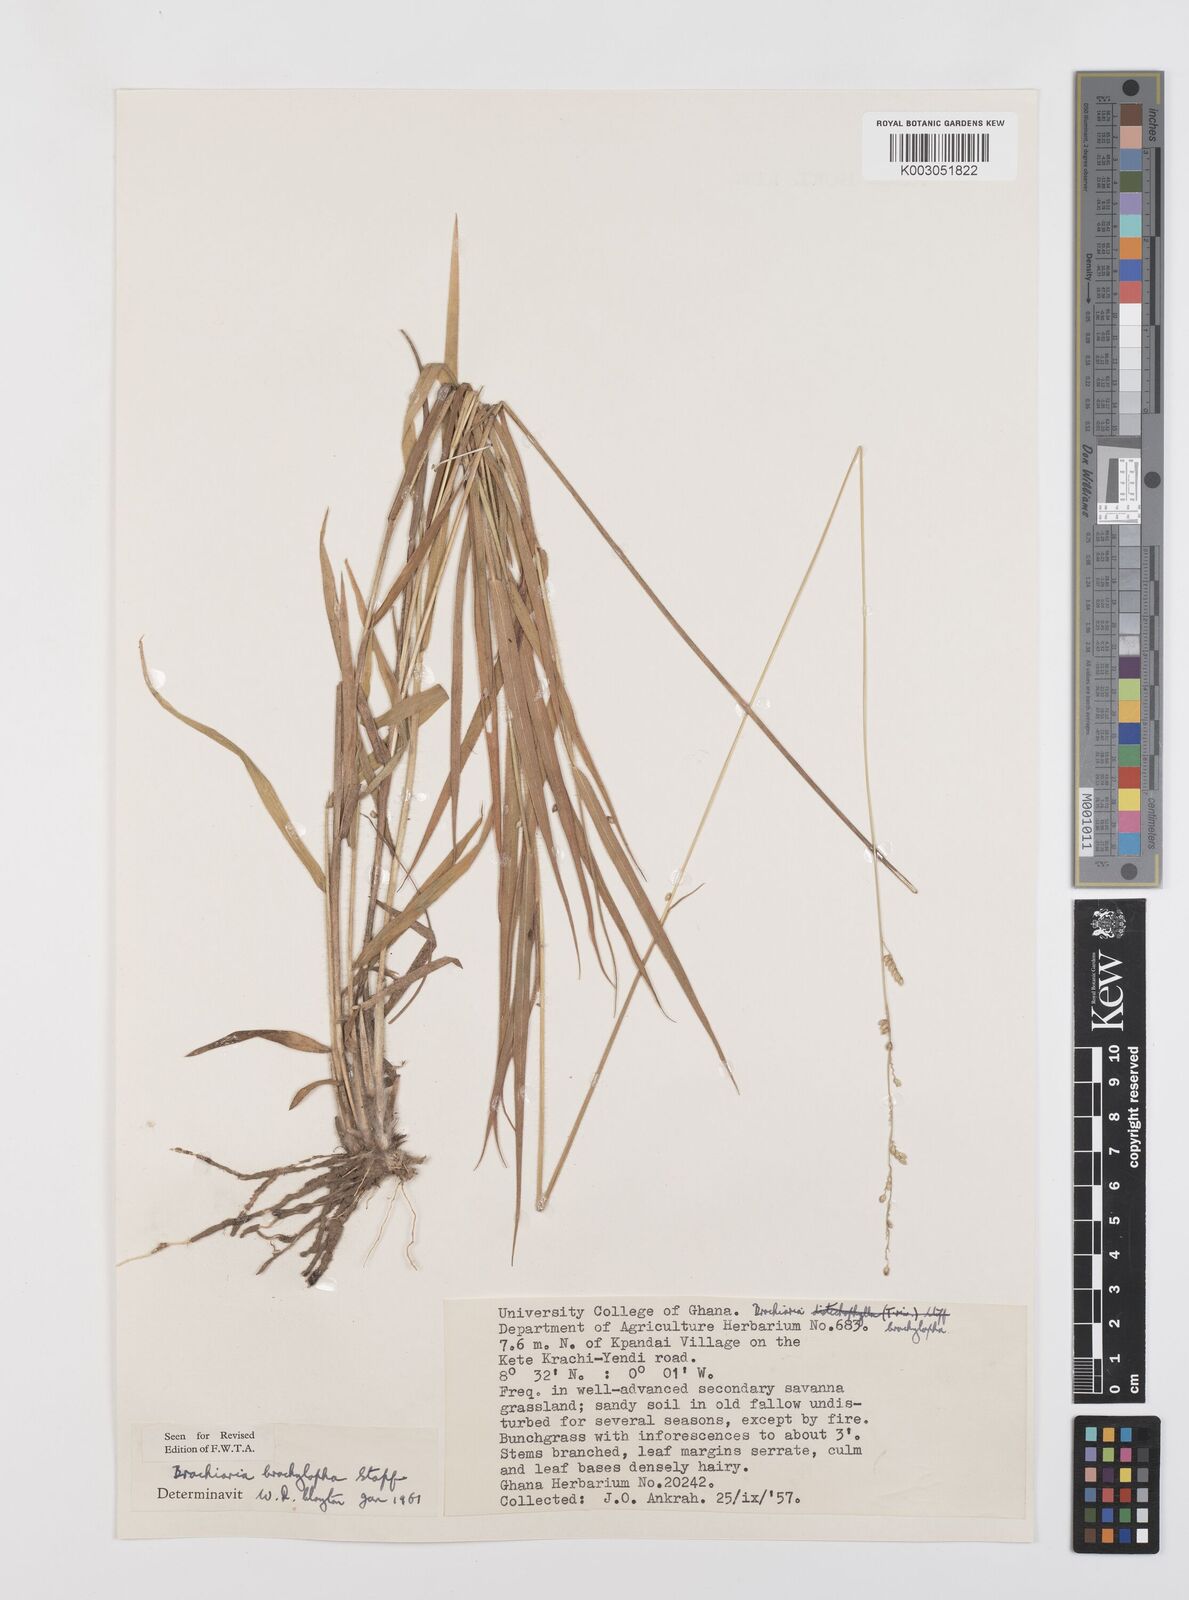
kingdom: Plantae
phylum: Tracheophyta
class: Liliopsida
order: Poales
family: Poaceae
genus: Urochloa
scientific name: Urochloa serrata
